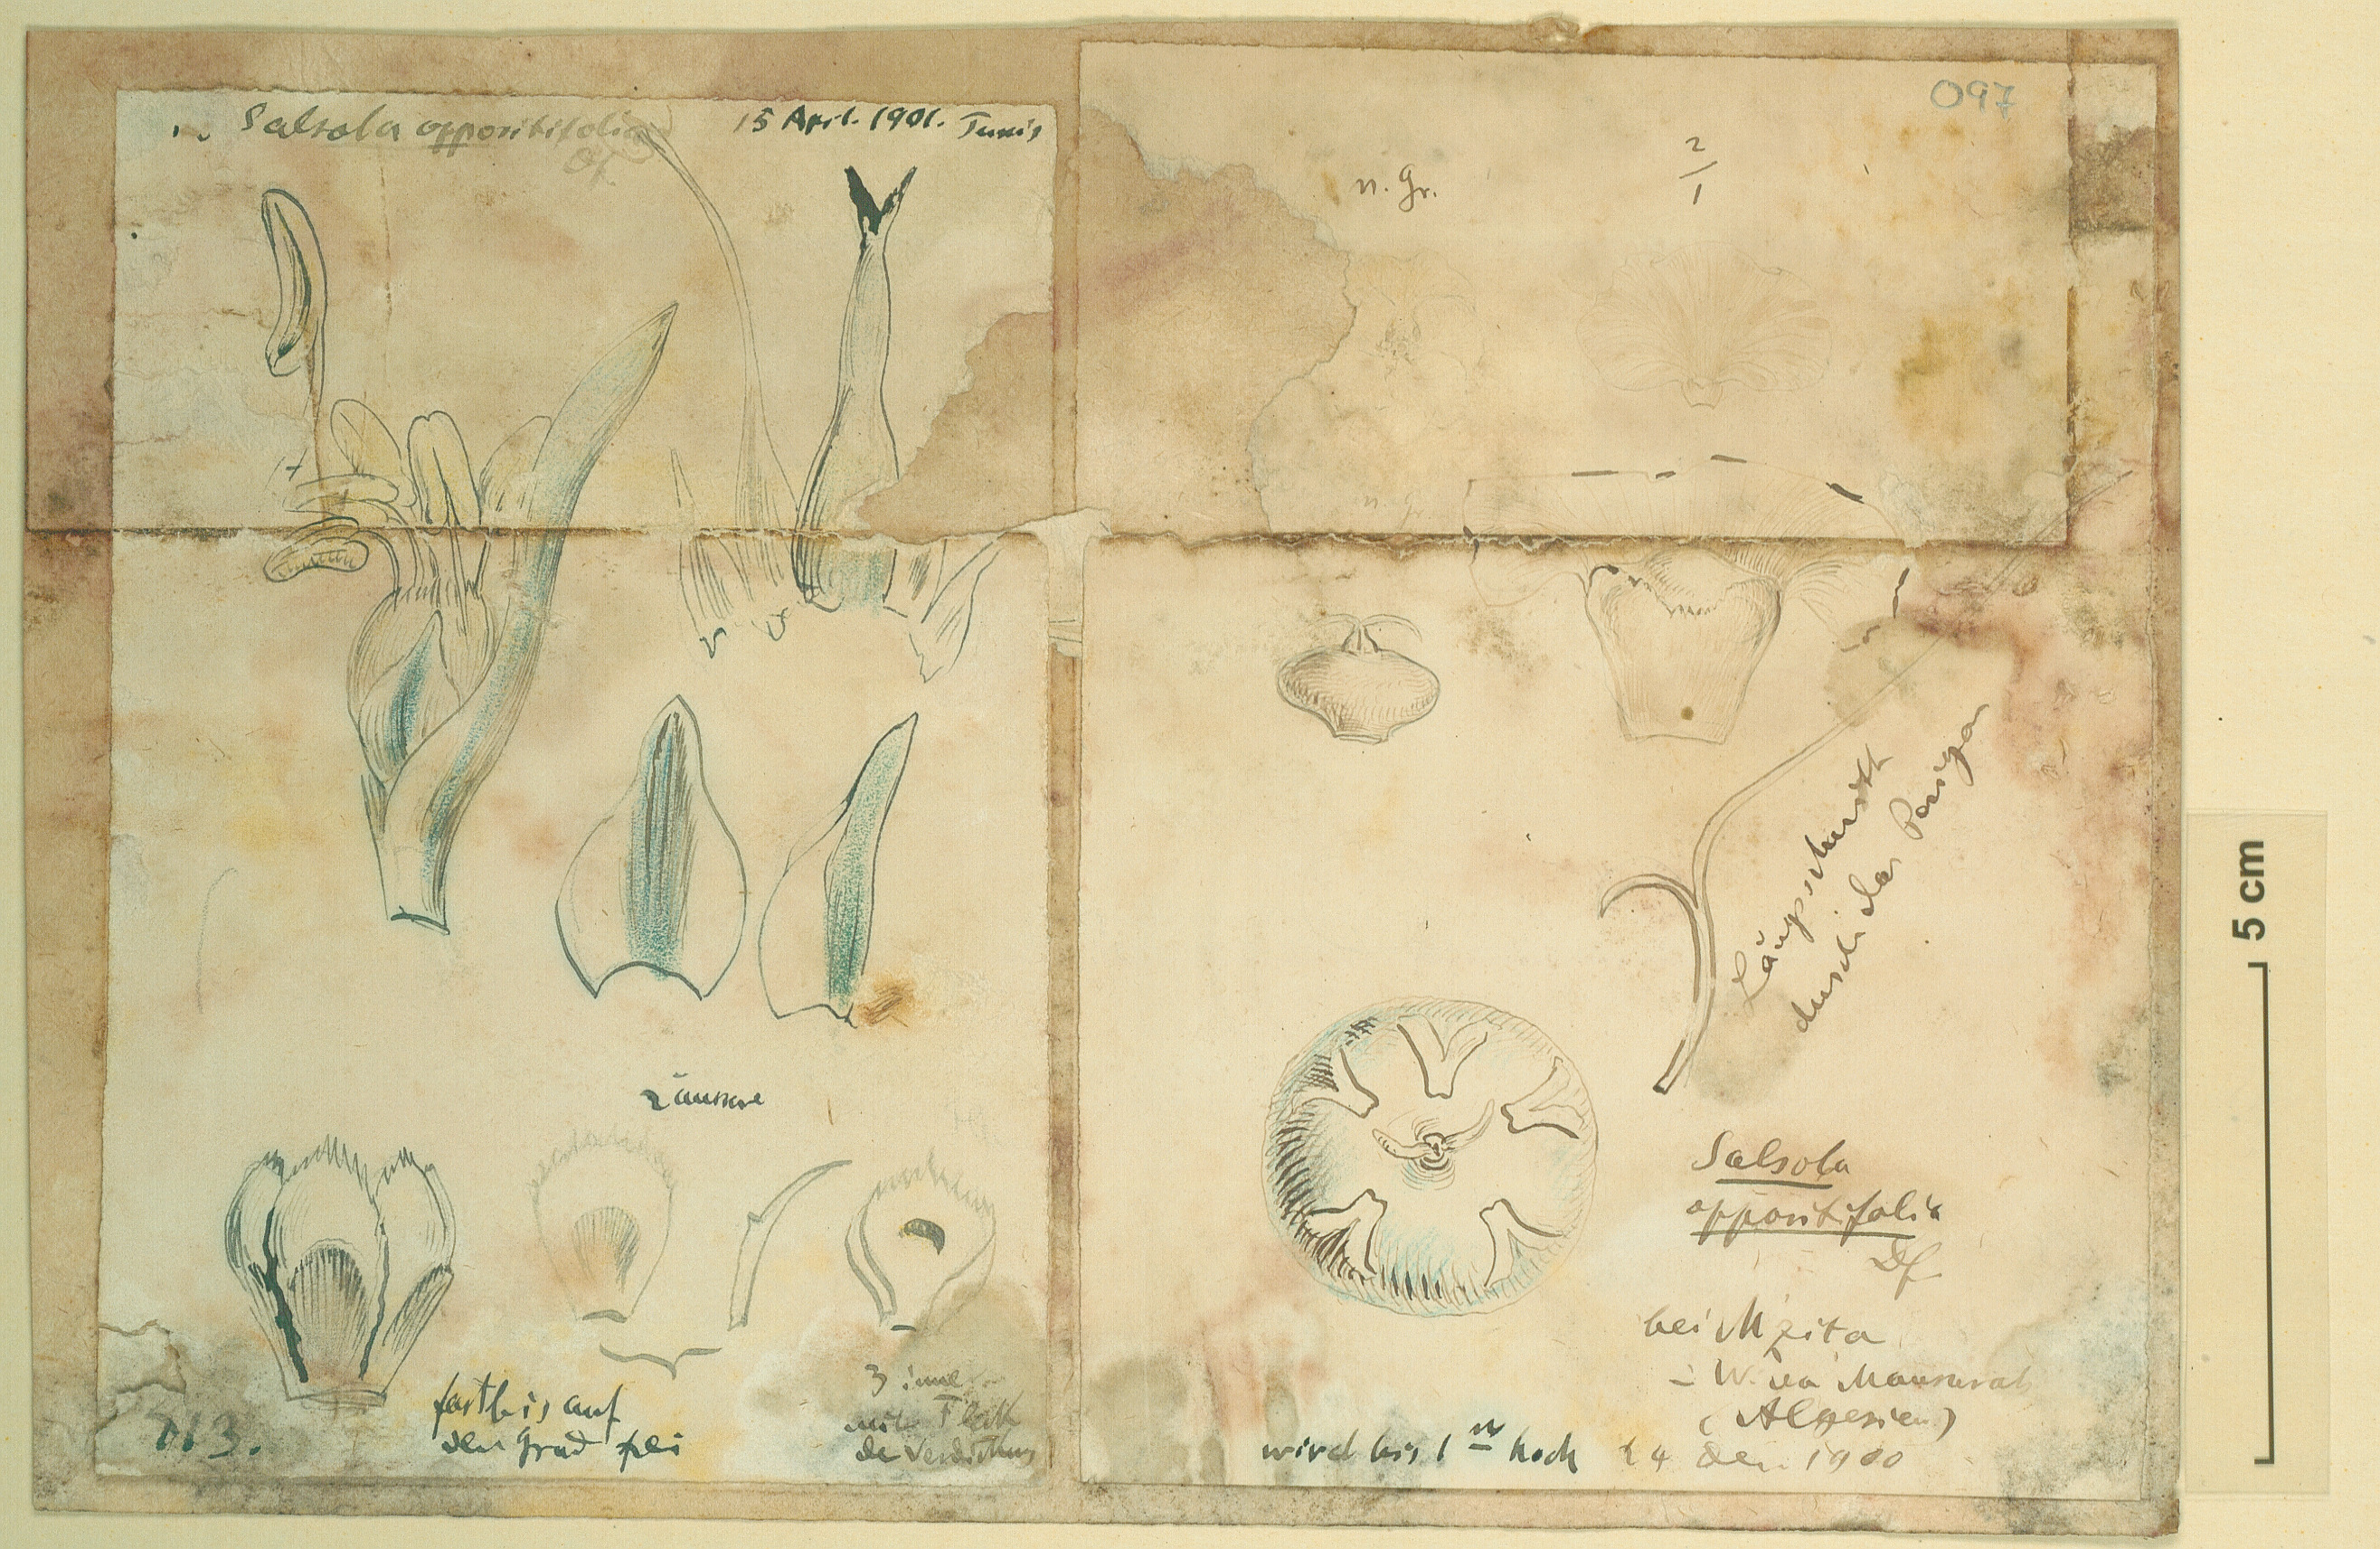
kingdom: Plantae
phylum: Tracheophyta
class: Magnoliopsida
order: Caryophyllales
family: Amaranthaceae
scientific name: Amaranthaceae
